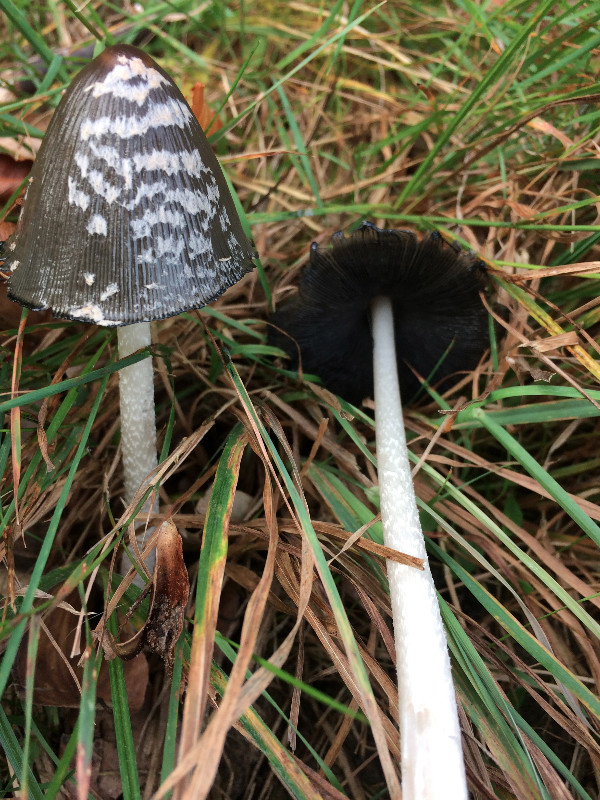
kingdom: Fungi
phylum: Basidiomycota
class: Agaricomycetes
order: Agaricales
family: Psathyrellaceae
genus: Coprinopsis
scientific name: Coprinopsis picacea
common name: skade-blækhat
